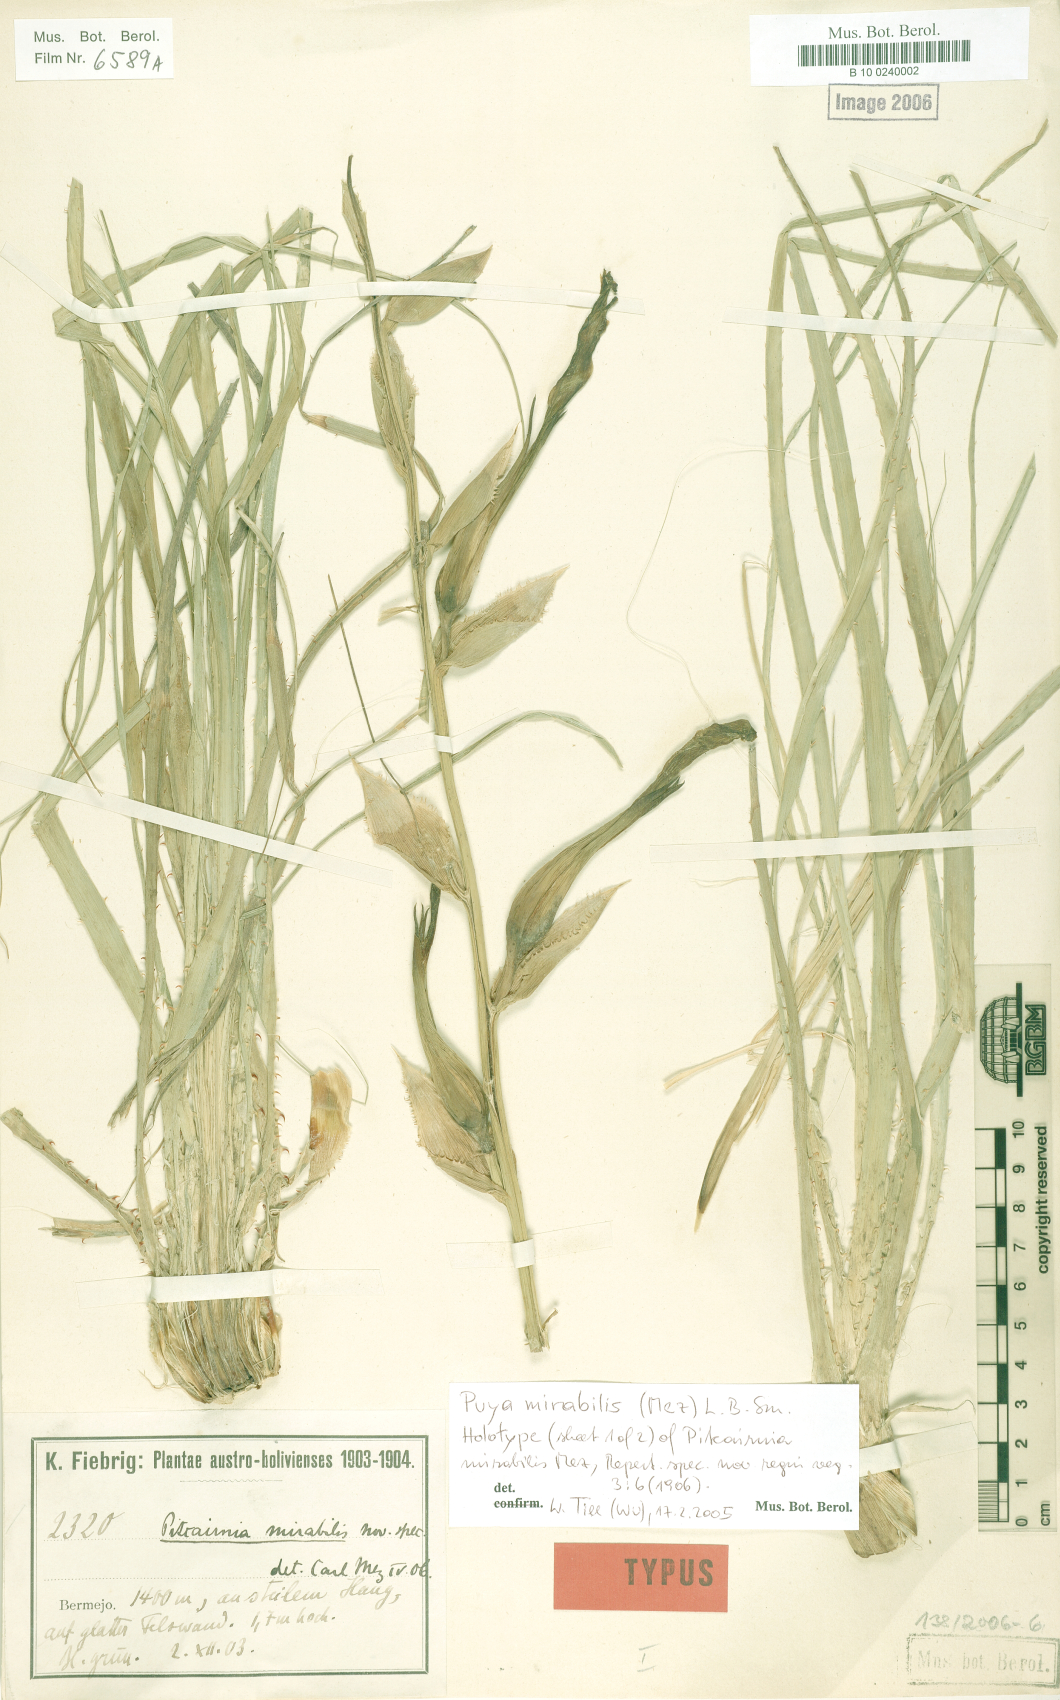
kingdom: Plantae
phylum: Tracheophyta
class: Liliopsida
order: Poales
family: Bromeliaceae
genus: Puya
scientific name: Puya mirabilis
